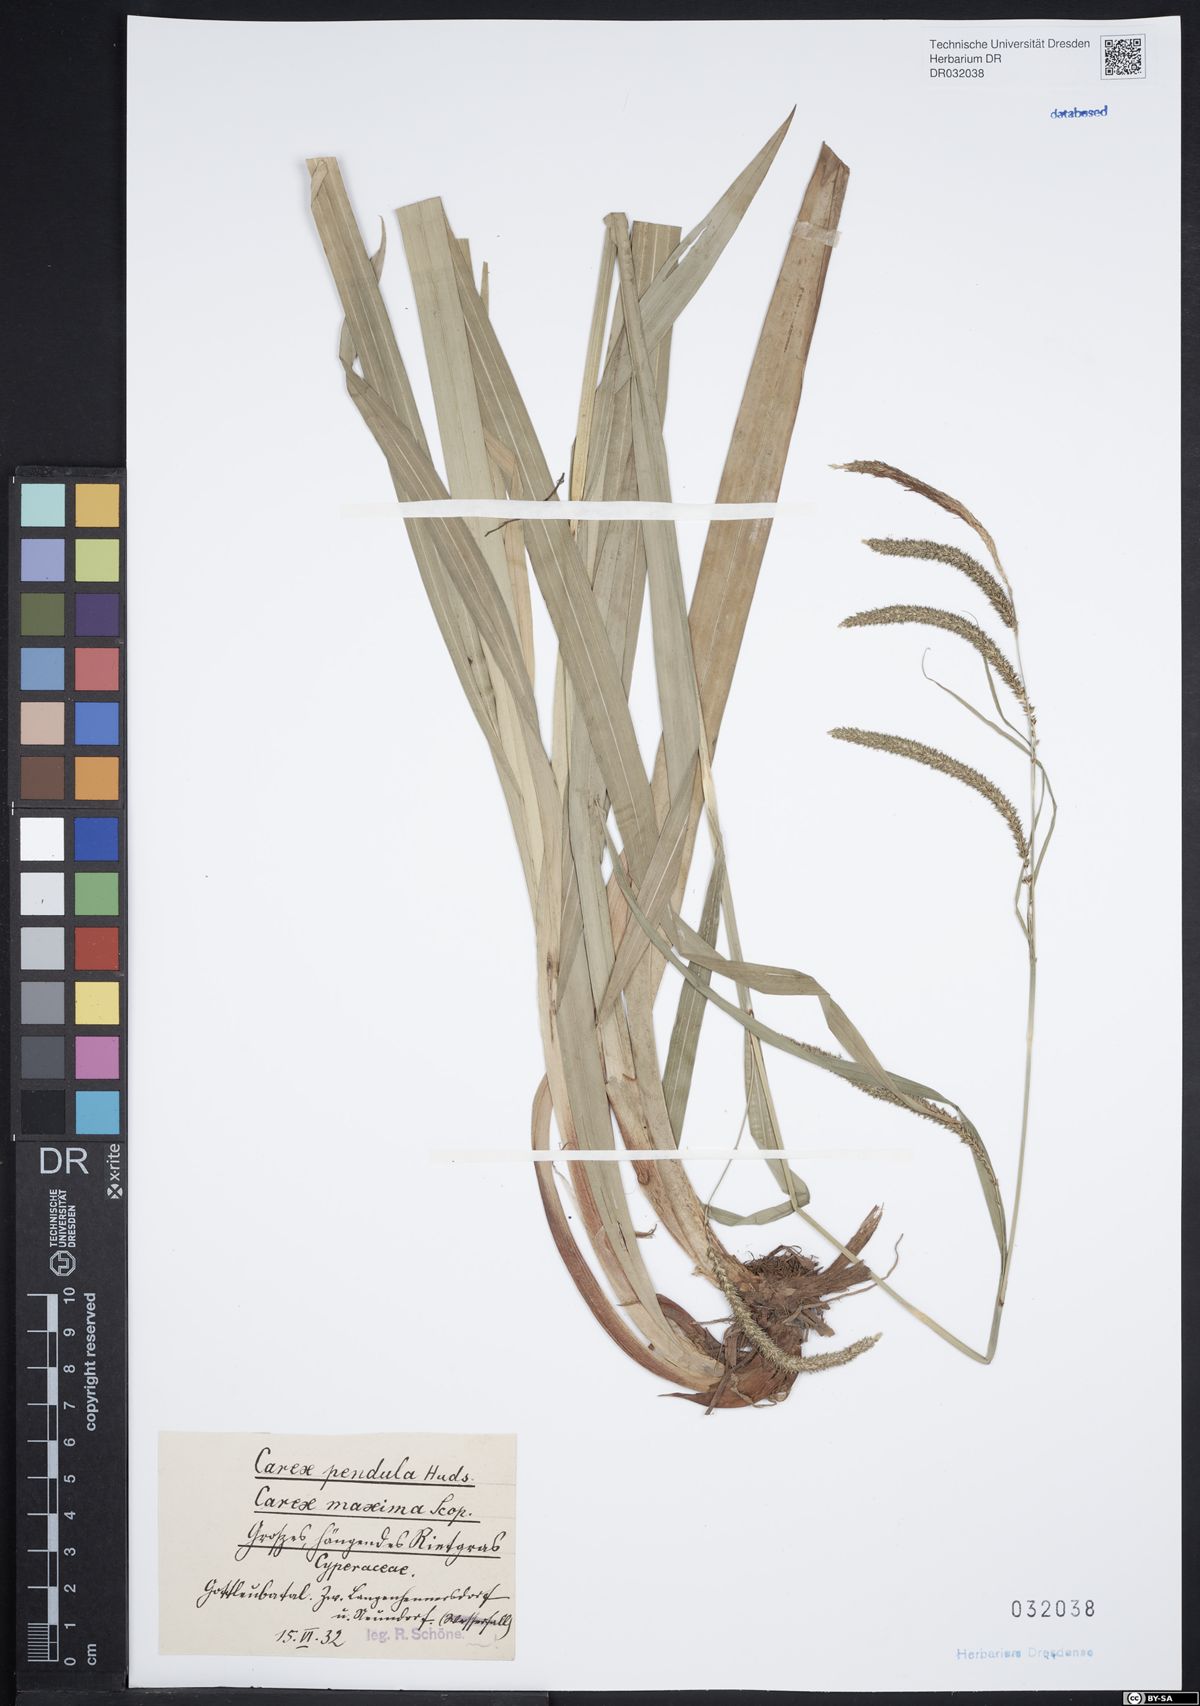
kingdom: Plantae
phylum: Tracheophyta
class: Liliopsida
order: Poales
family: Cyperaceae
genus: Carex
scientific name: Carex pendula
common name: Pendulous sedge
